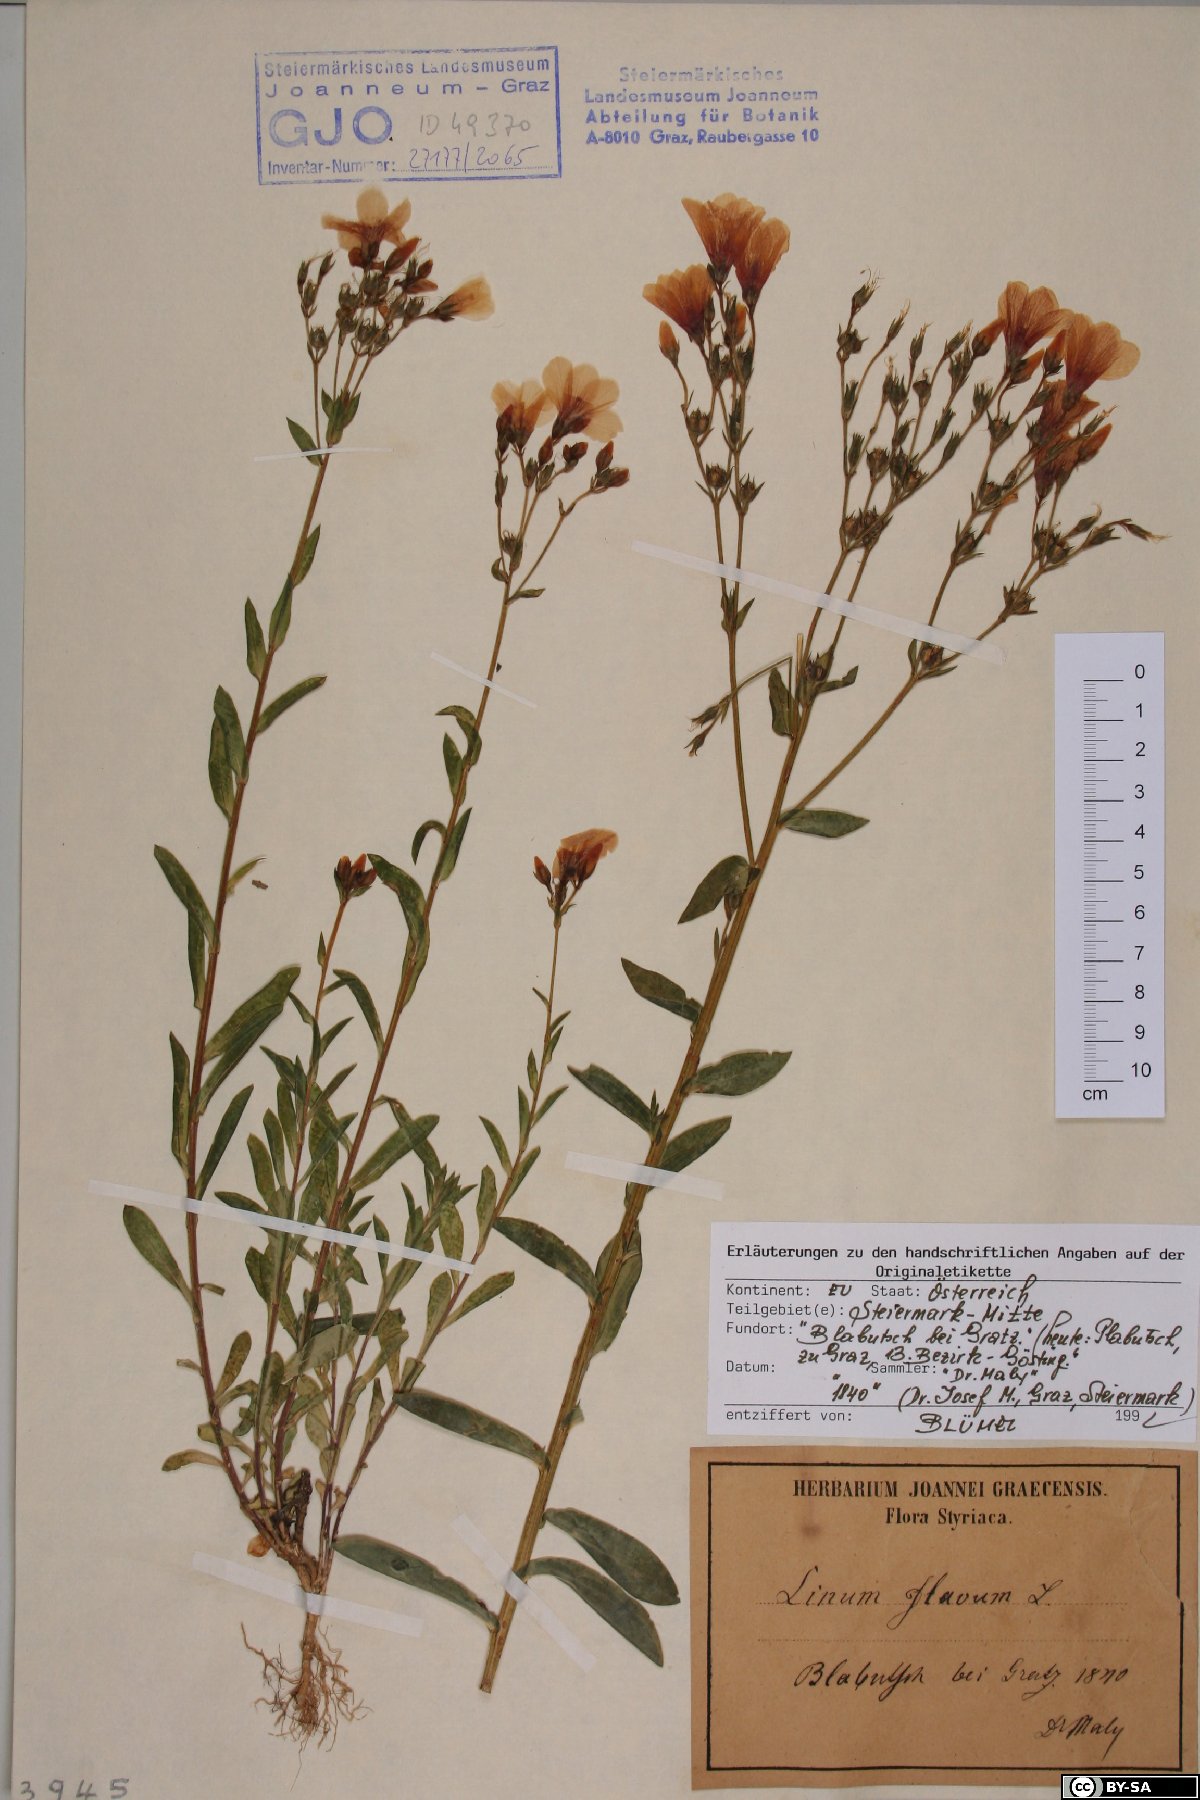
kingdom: Plantae
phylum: Tracheophyta
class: Magnoliopsida
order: Malpighiales
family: Linaceae
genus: Linum
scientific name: Linum flavum
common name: Yellow flax
